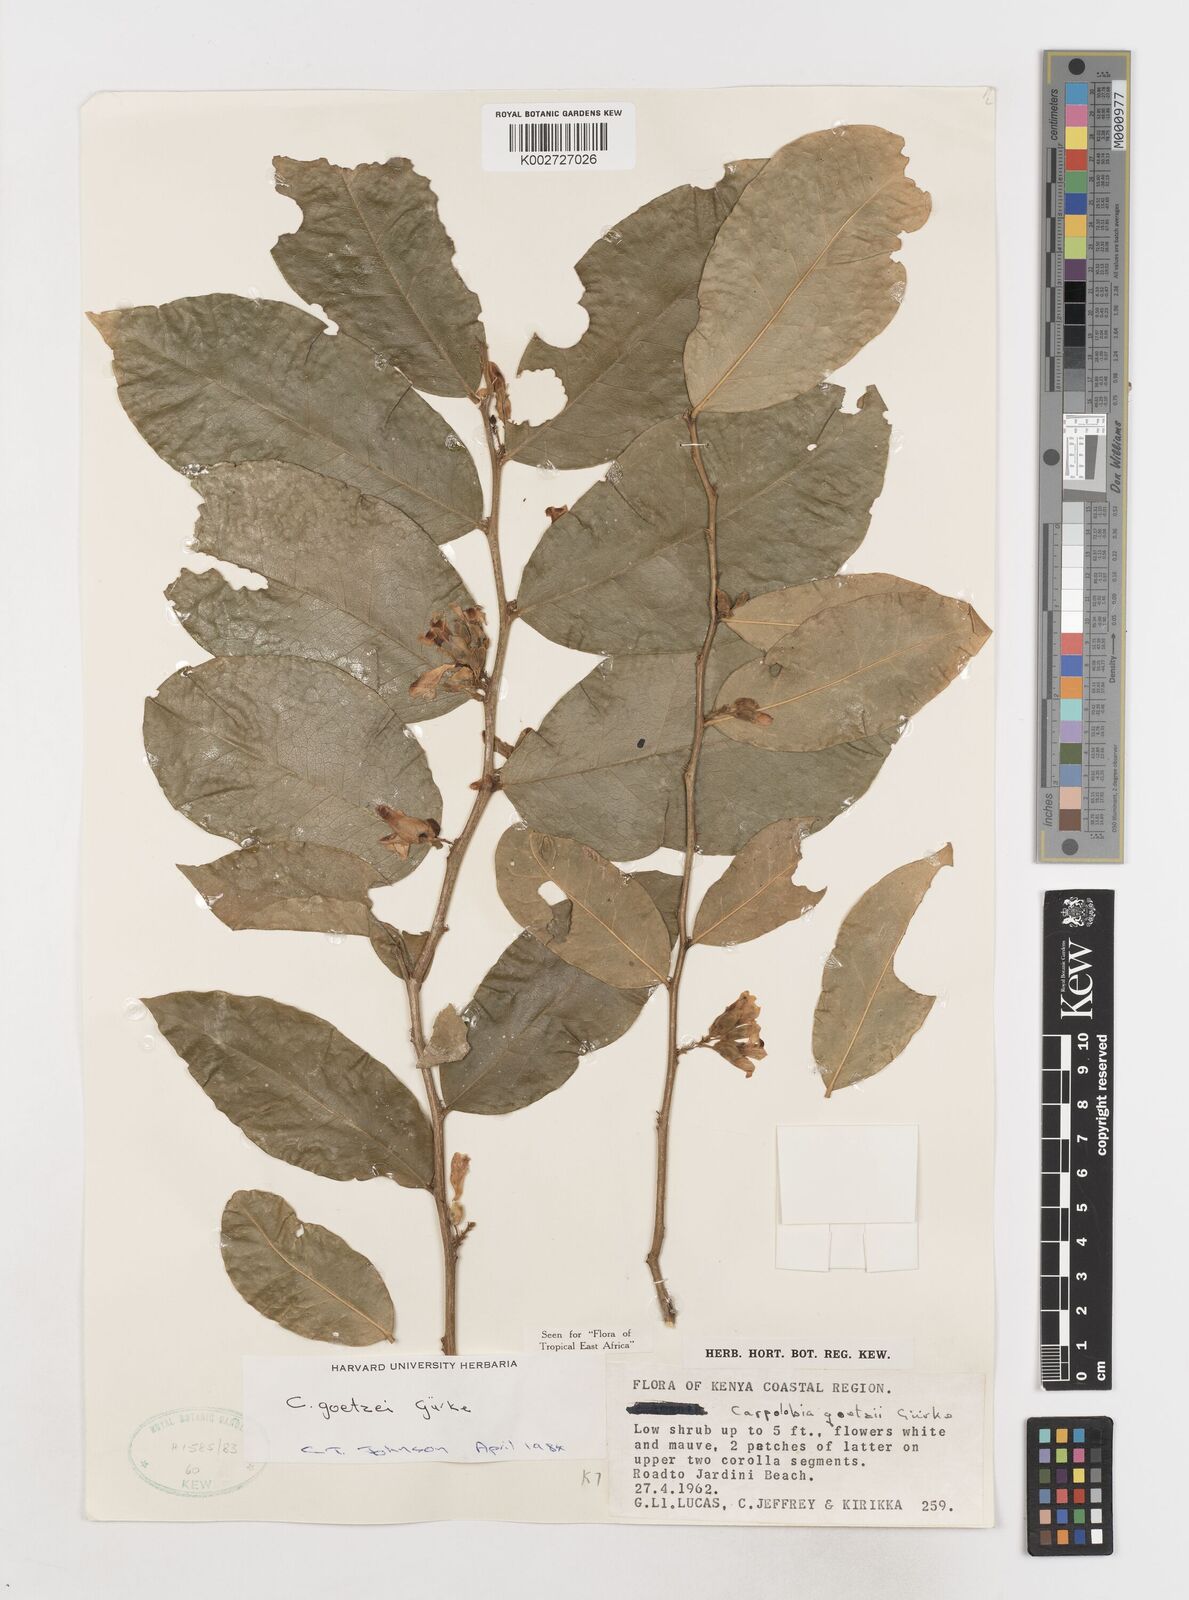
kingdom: Plantae
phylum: Tracheophyta
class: Magnoliopsida
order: Fabales
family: Polygalaceae
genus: Carpolobia
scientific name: Carpolobia goetzei
